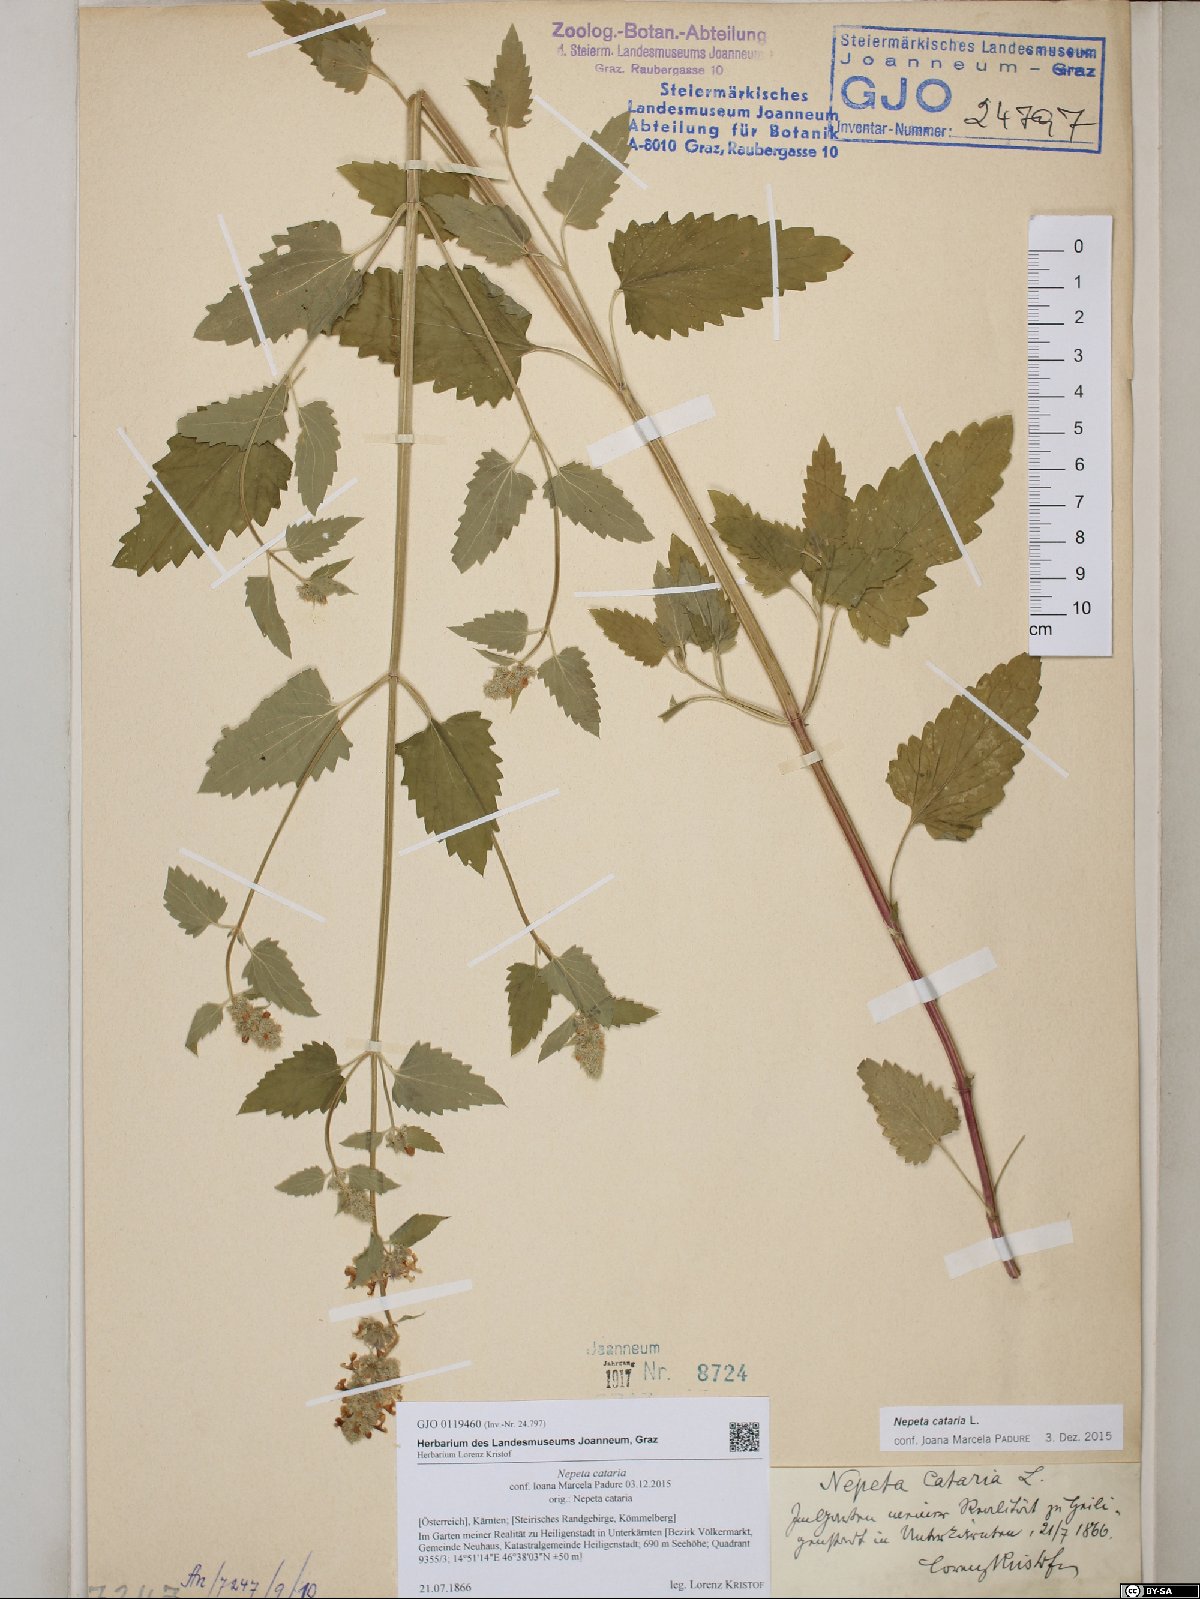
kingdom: Plantae
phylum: Tracheophyta
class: Magnoliopsida
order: Lamiales
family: Lamiaceae
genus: Nepeta
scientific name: Nepeta cataria
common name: Catnip
